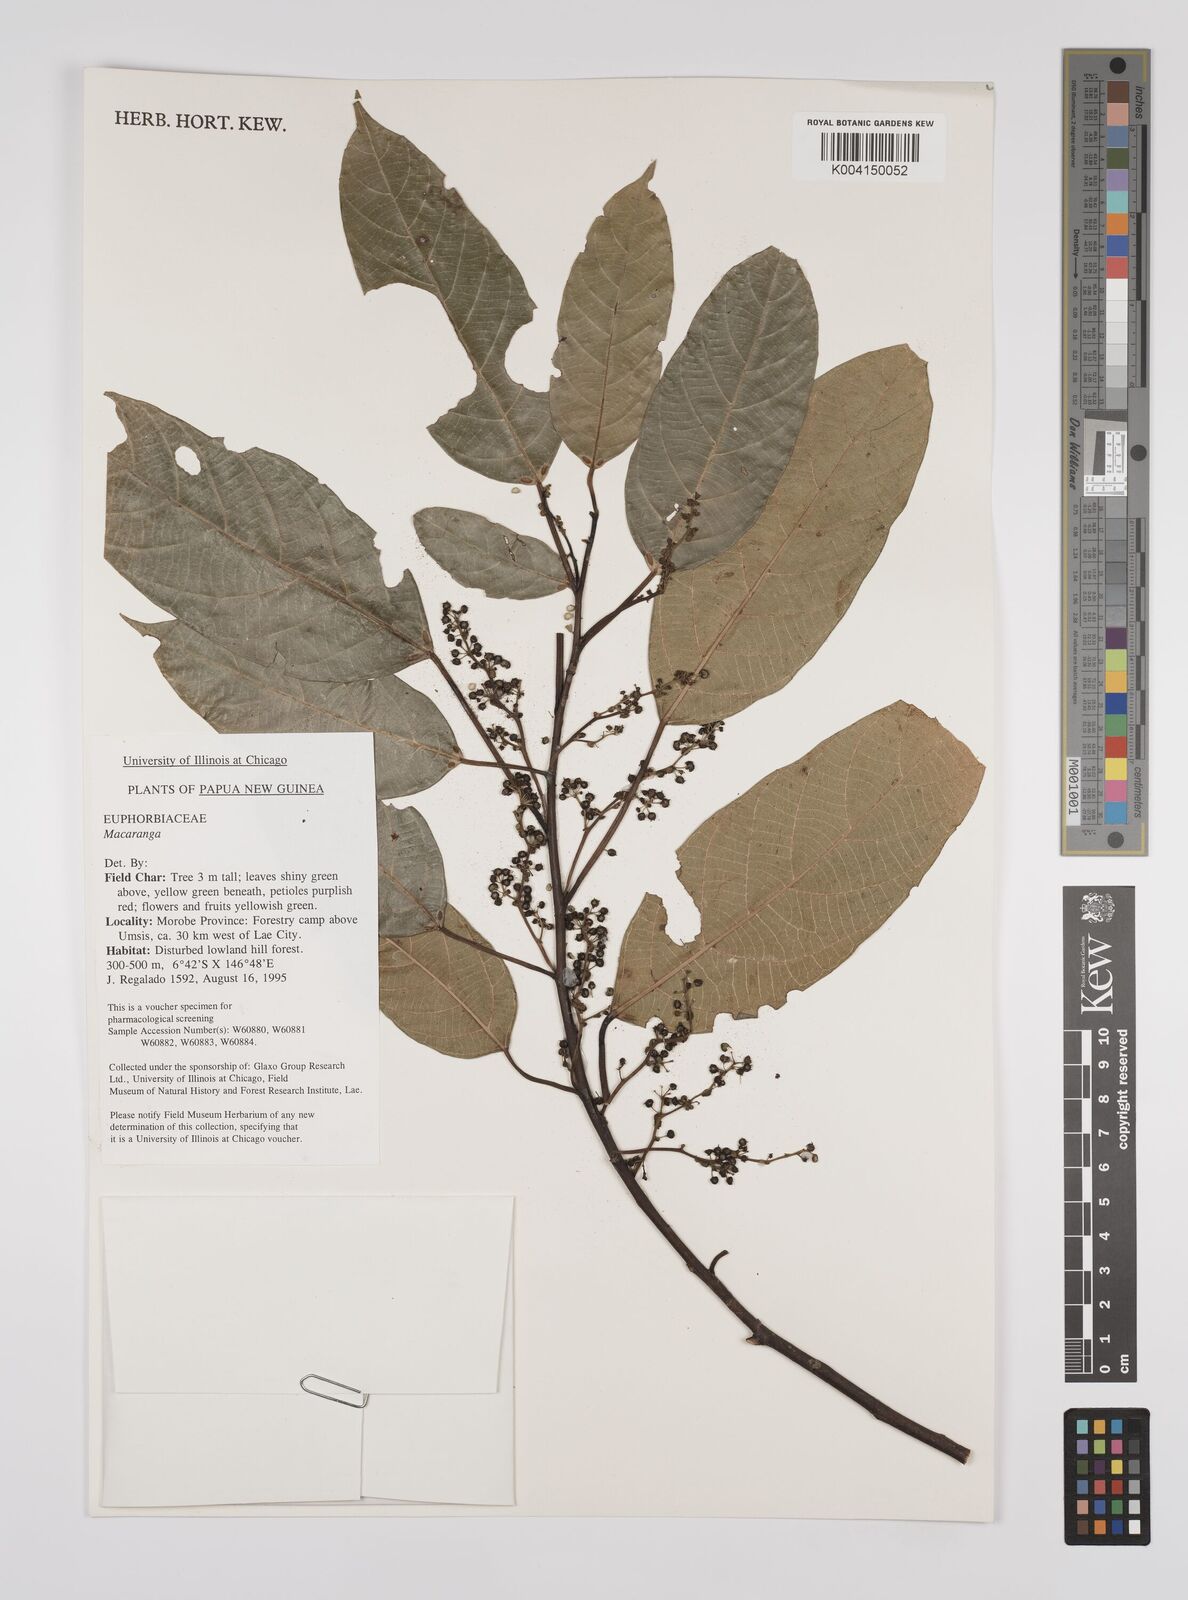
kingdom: Plantae
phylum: Tracheophyta
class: Magnoliopsida
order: Malpighiales
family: Euphorbiaceae
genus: Macaranga
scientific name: Macaranga
